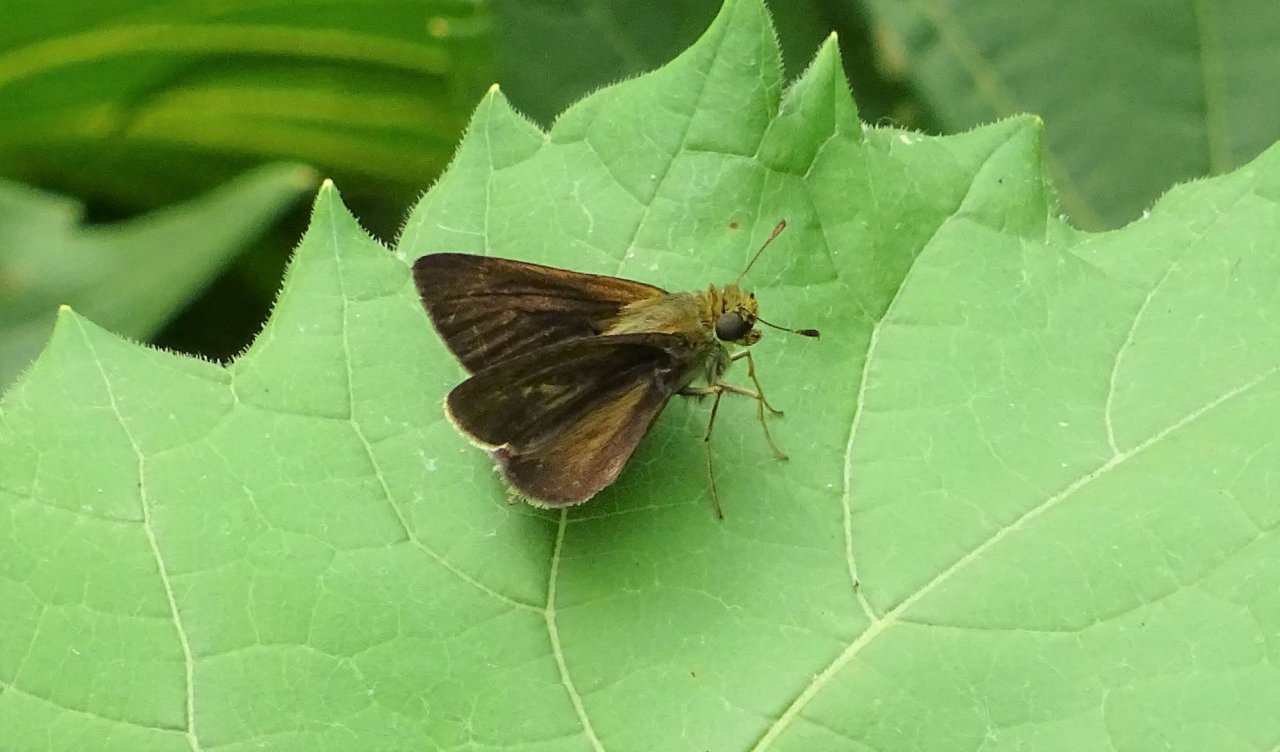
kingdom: Animalia
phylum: Arthropoda
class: Insecta
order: Lepidoptera
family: Hesperiidae
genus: Euphyes
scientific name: Euphyes vestris
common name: Dun Skipper
